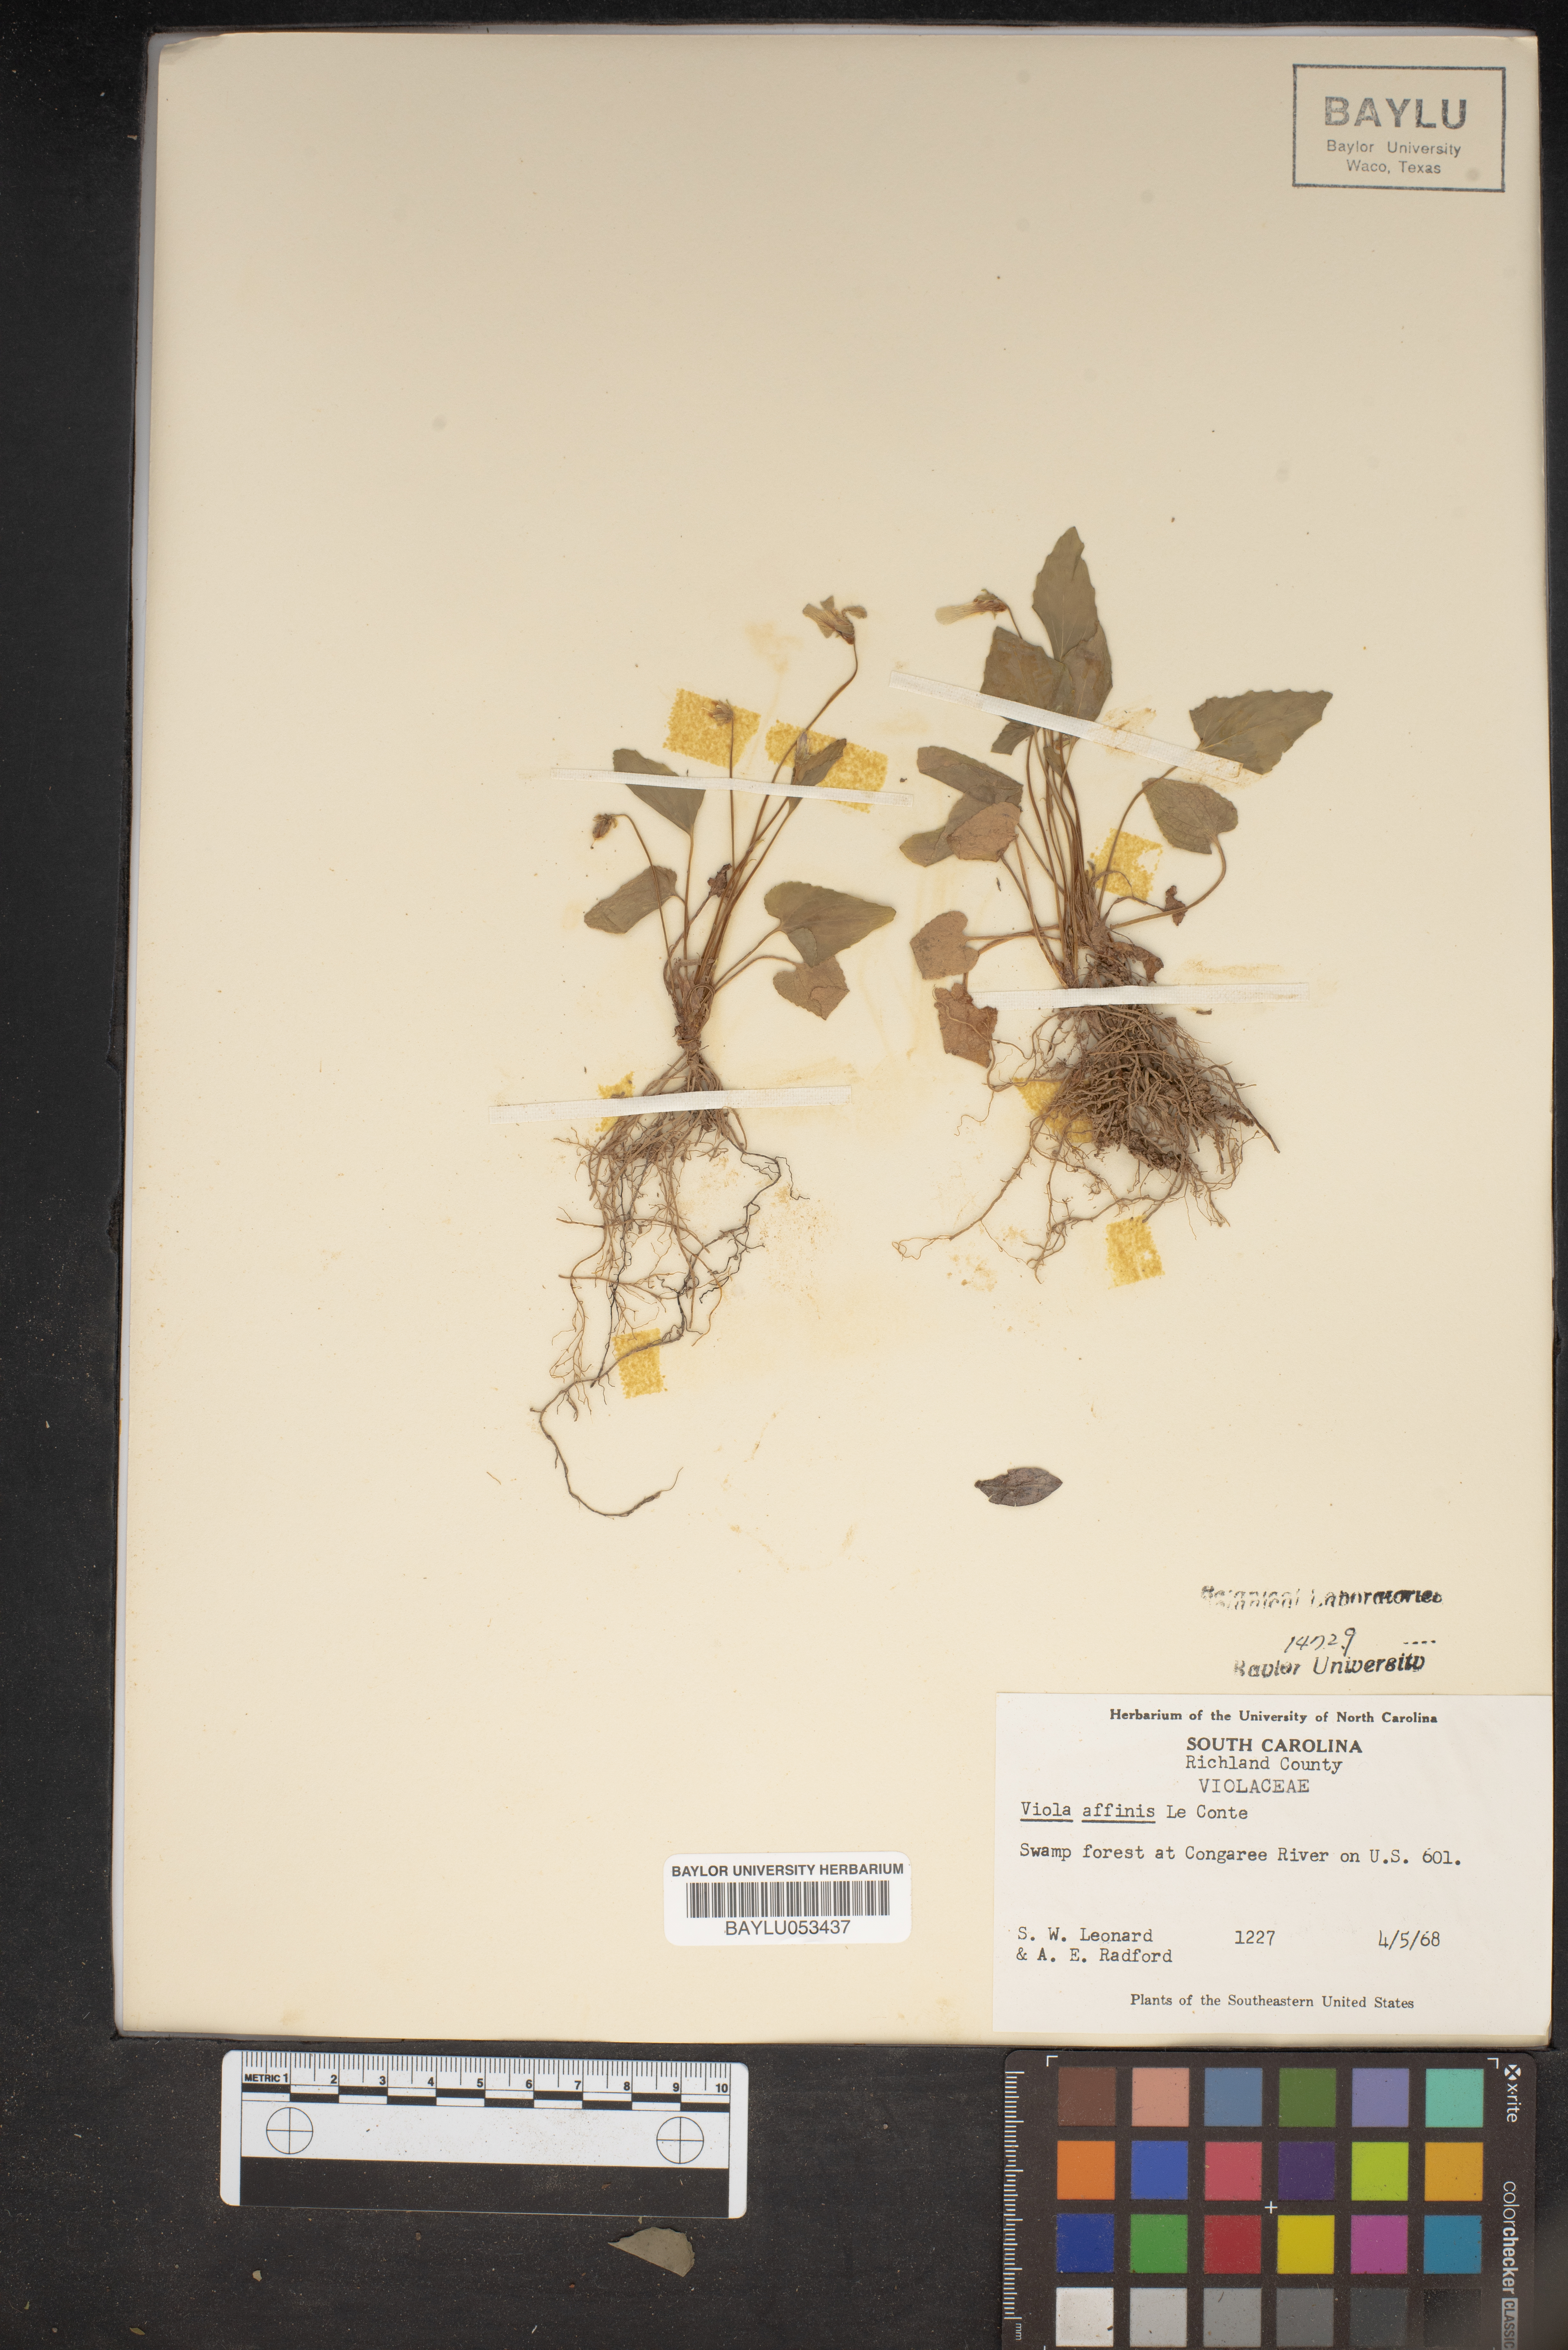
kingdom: Plantae
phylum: Tracheophyta
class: Magnoliopsida
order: Malpighiales
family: Violaceae
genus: Viola
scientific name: Viola affinis
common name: Leconte's violet
